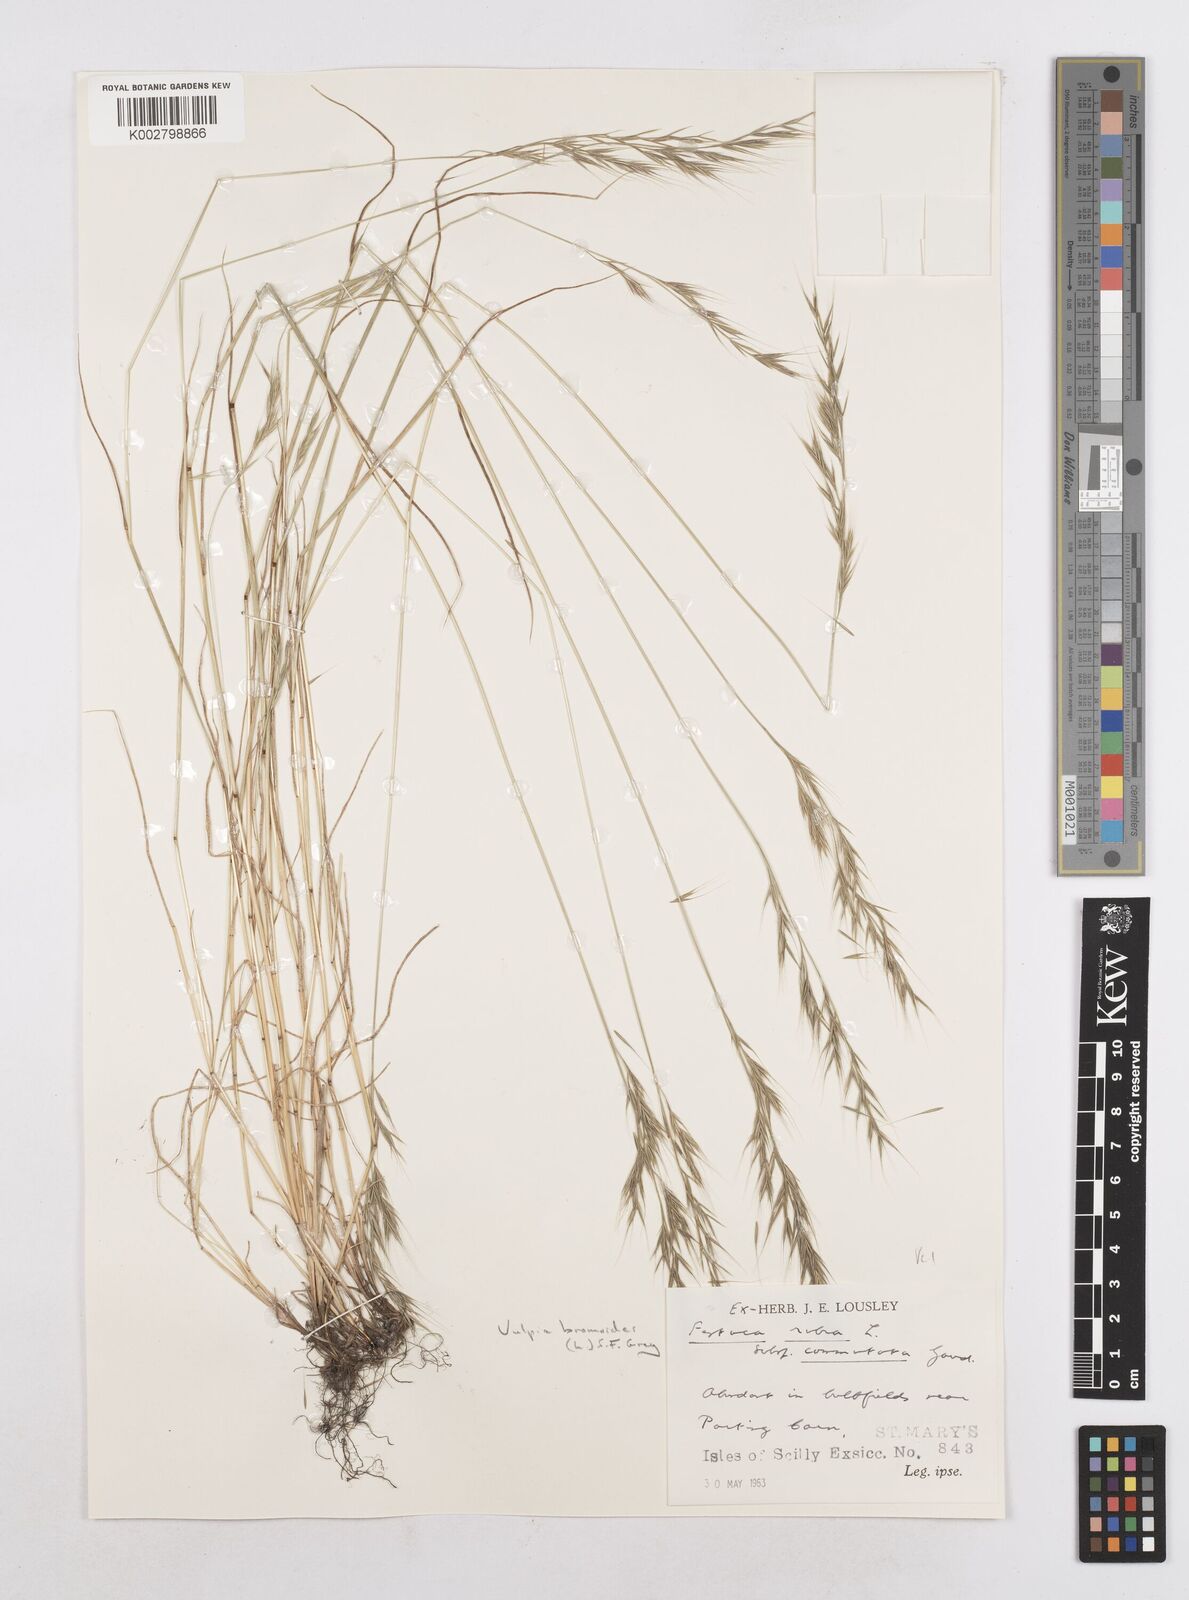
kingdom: Plantae
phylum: Tracheophyta
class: Liliopsida
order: Poales
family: Poaceae
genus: Festuca
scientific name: Festuca bromoides
